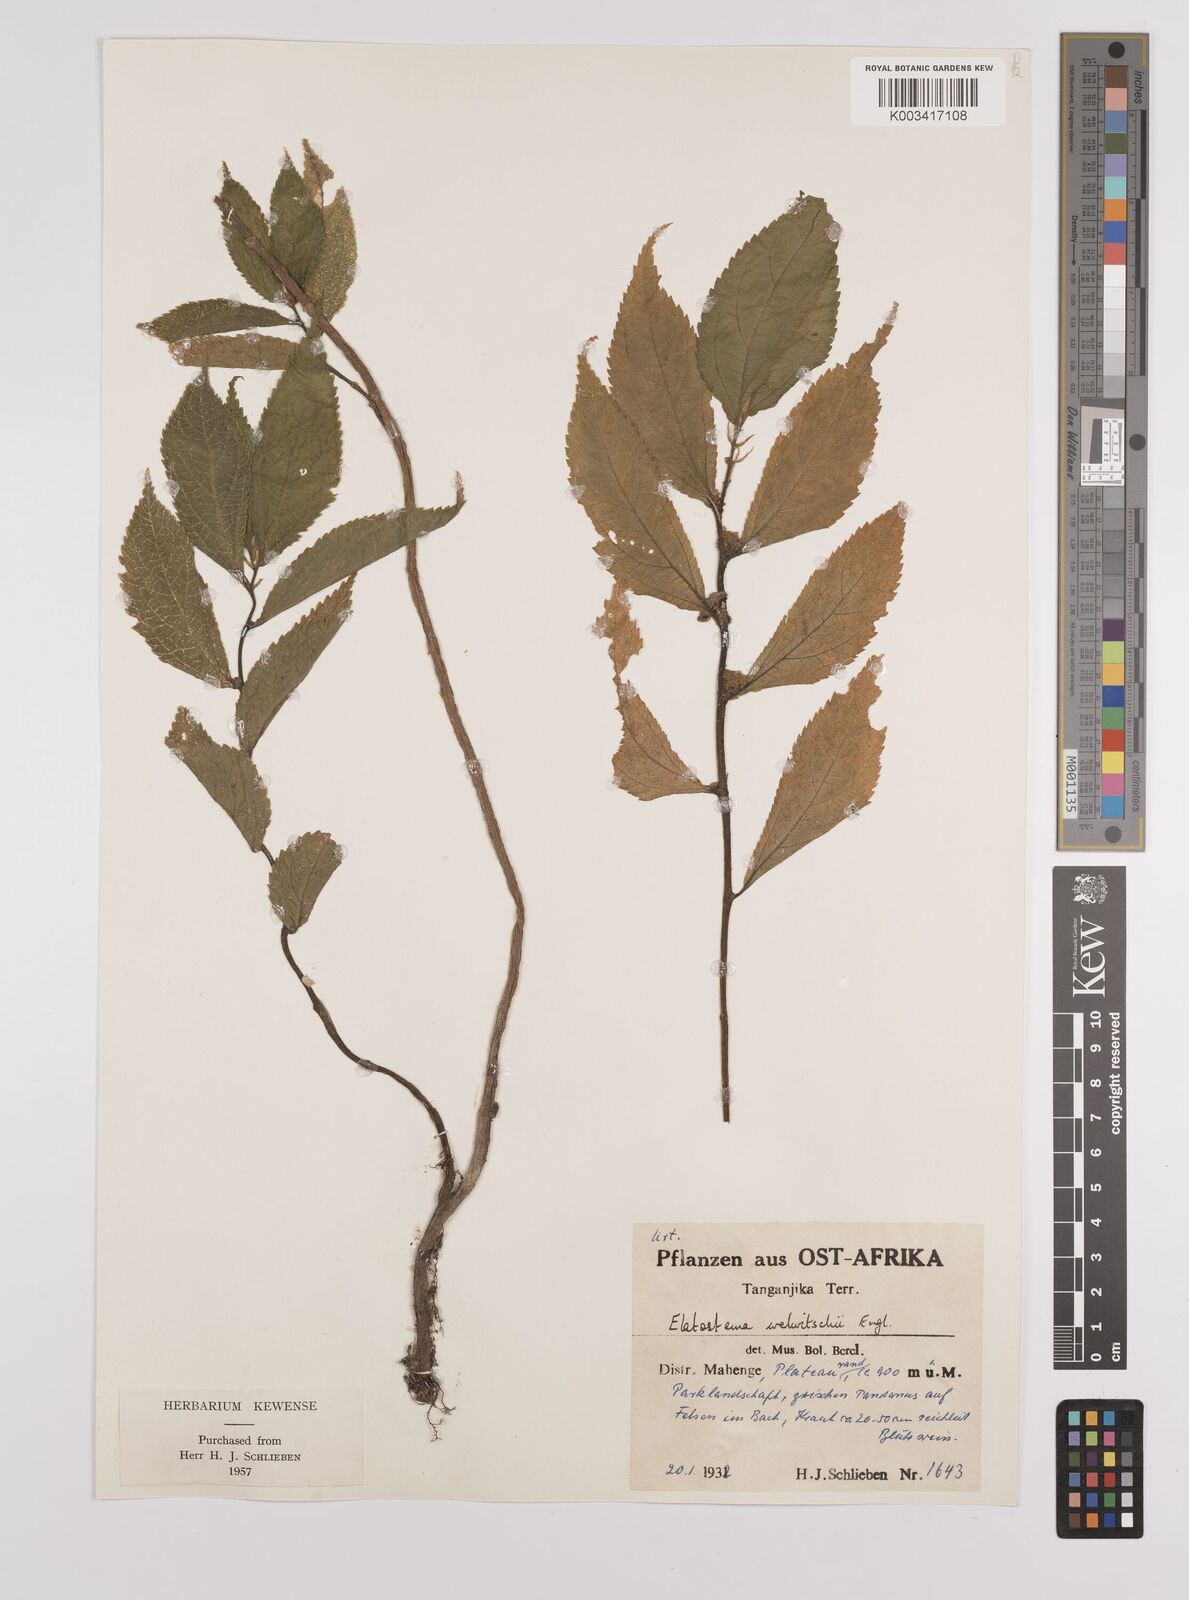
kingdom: Plantae
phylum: Tracheophyta
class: Magnoliopsida
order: Rosales
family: Urticaceae
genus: Elatostema
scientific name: Elatostema welwitschii
